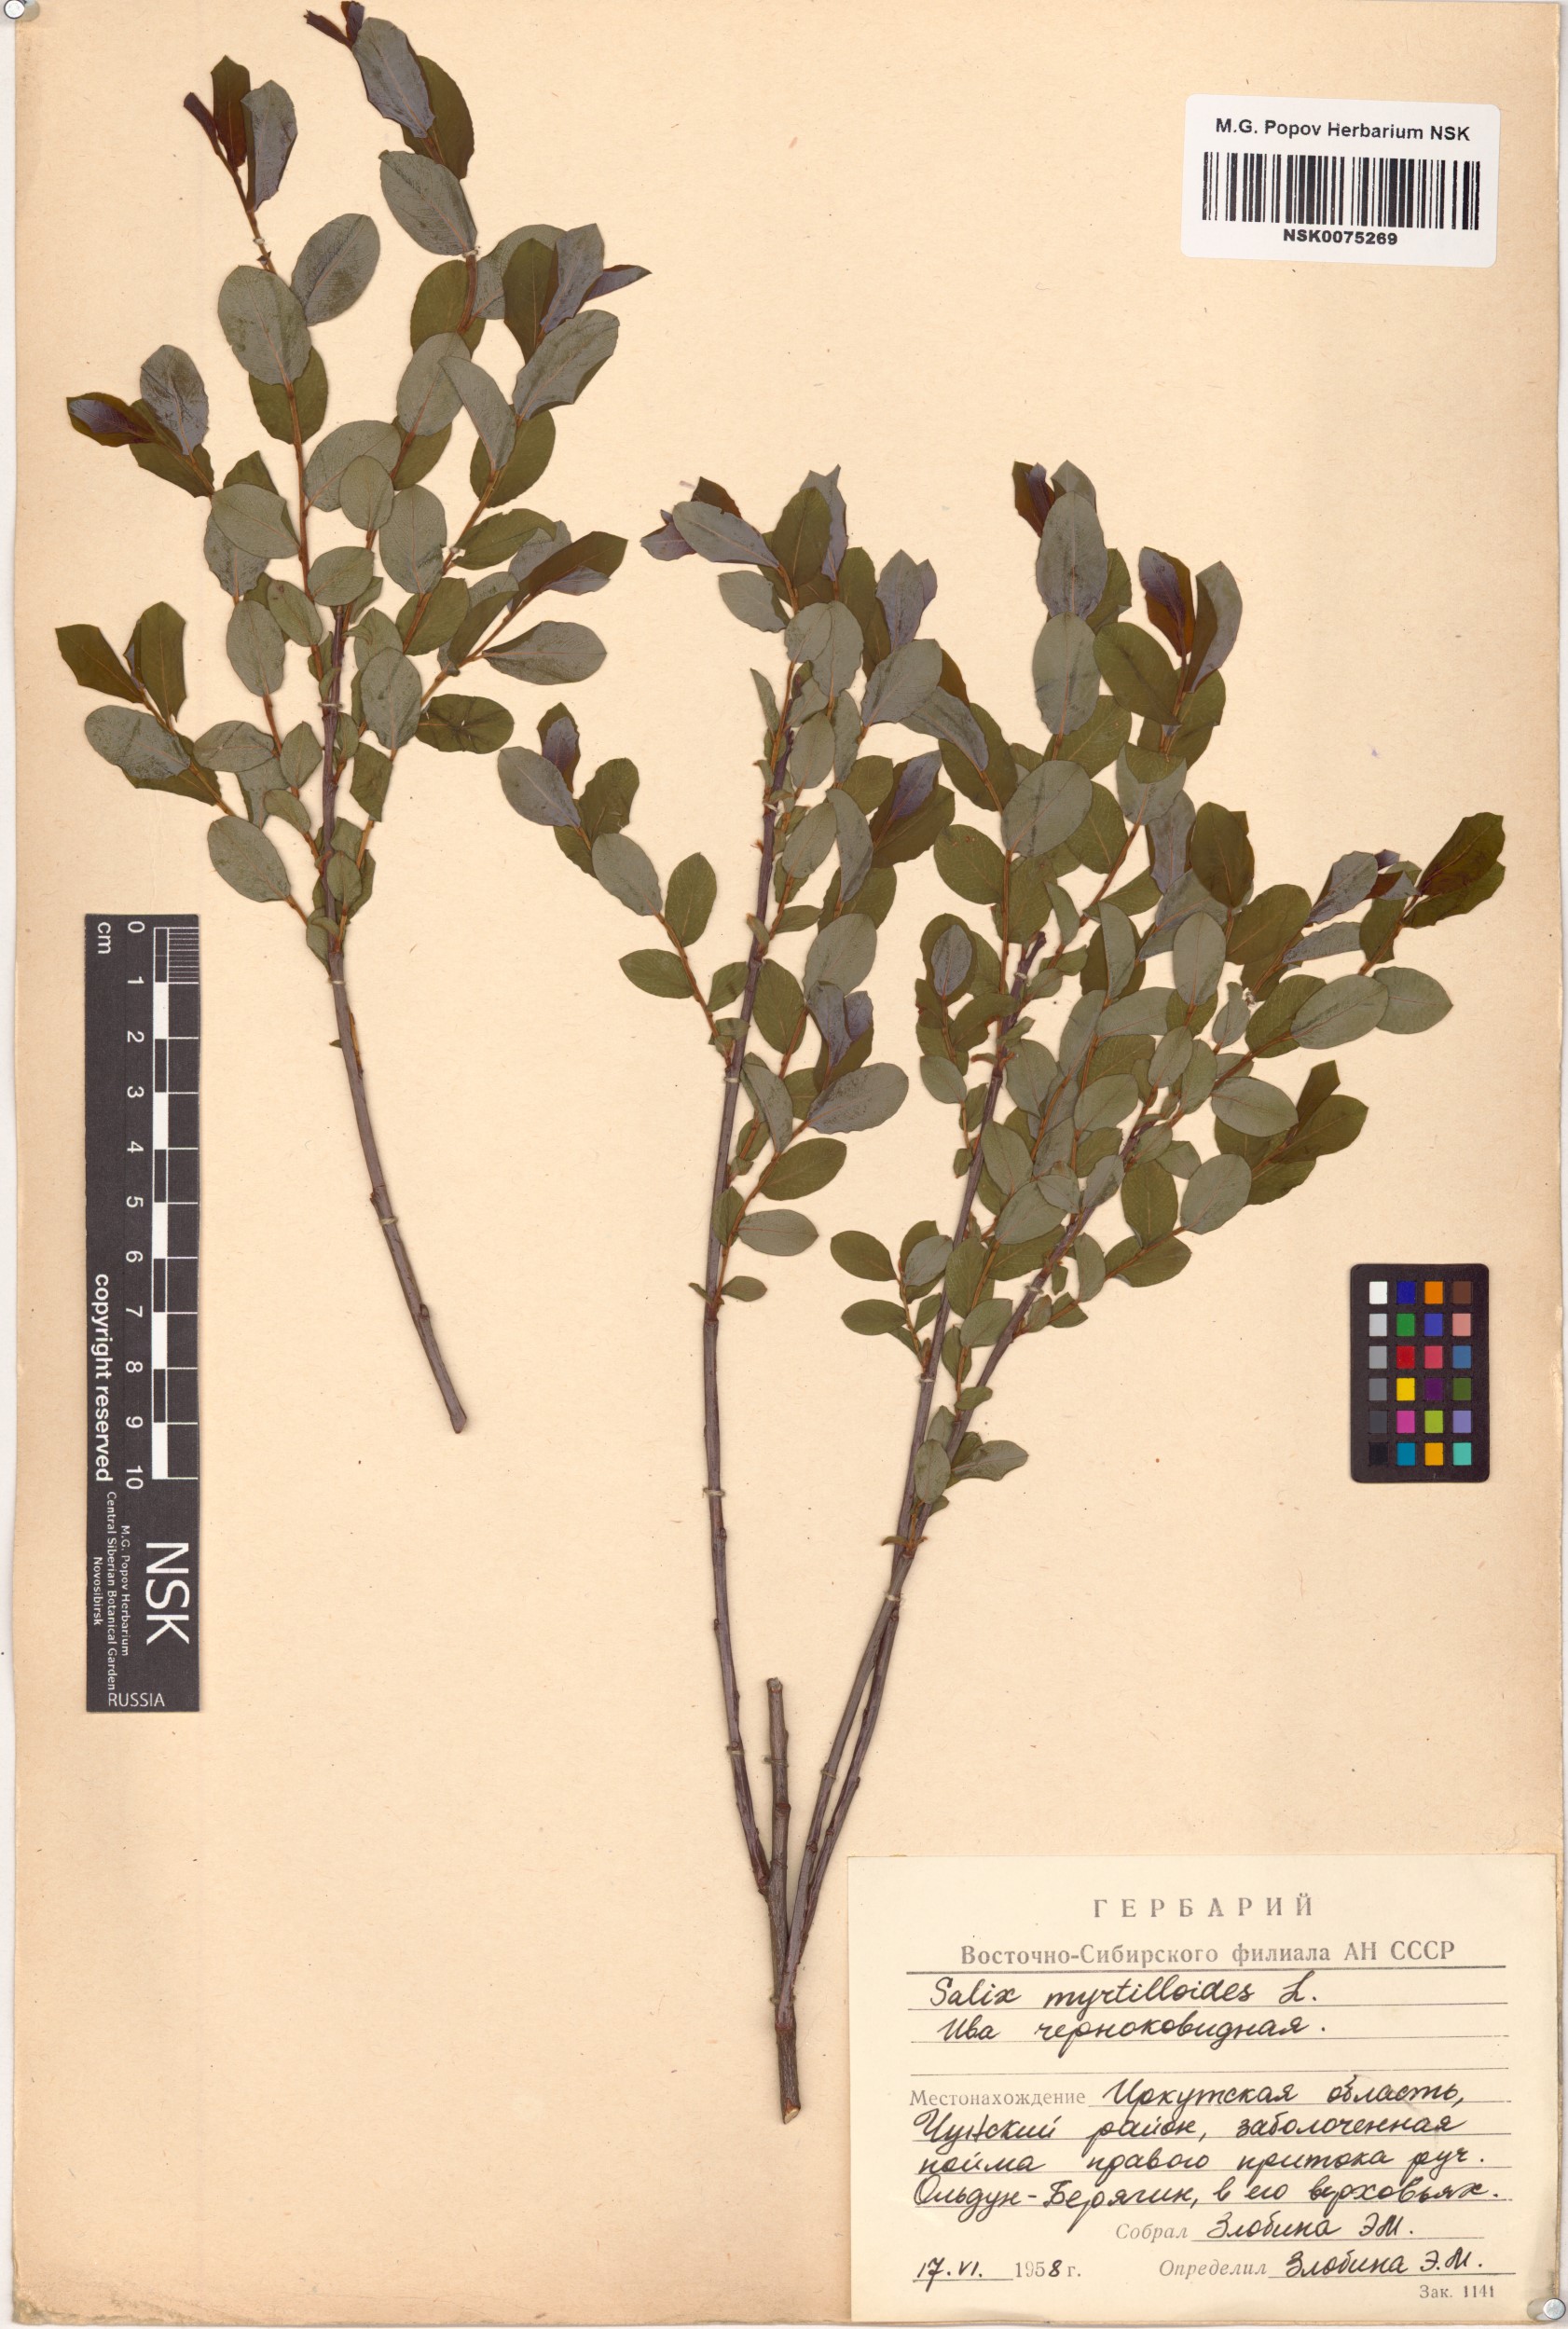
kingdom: Plantae
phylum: Tracheophyta
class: Magnoliopsida
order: Malpighiales
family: Salicaceae
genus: Salix
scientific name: Salix myrtilloides
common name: Myrtle-leaved willow
